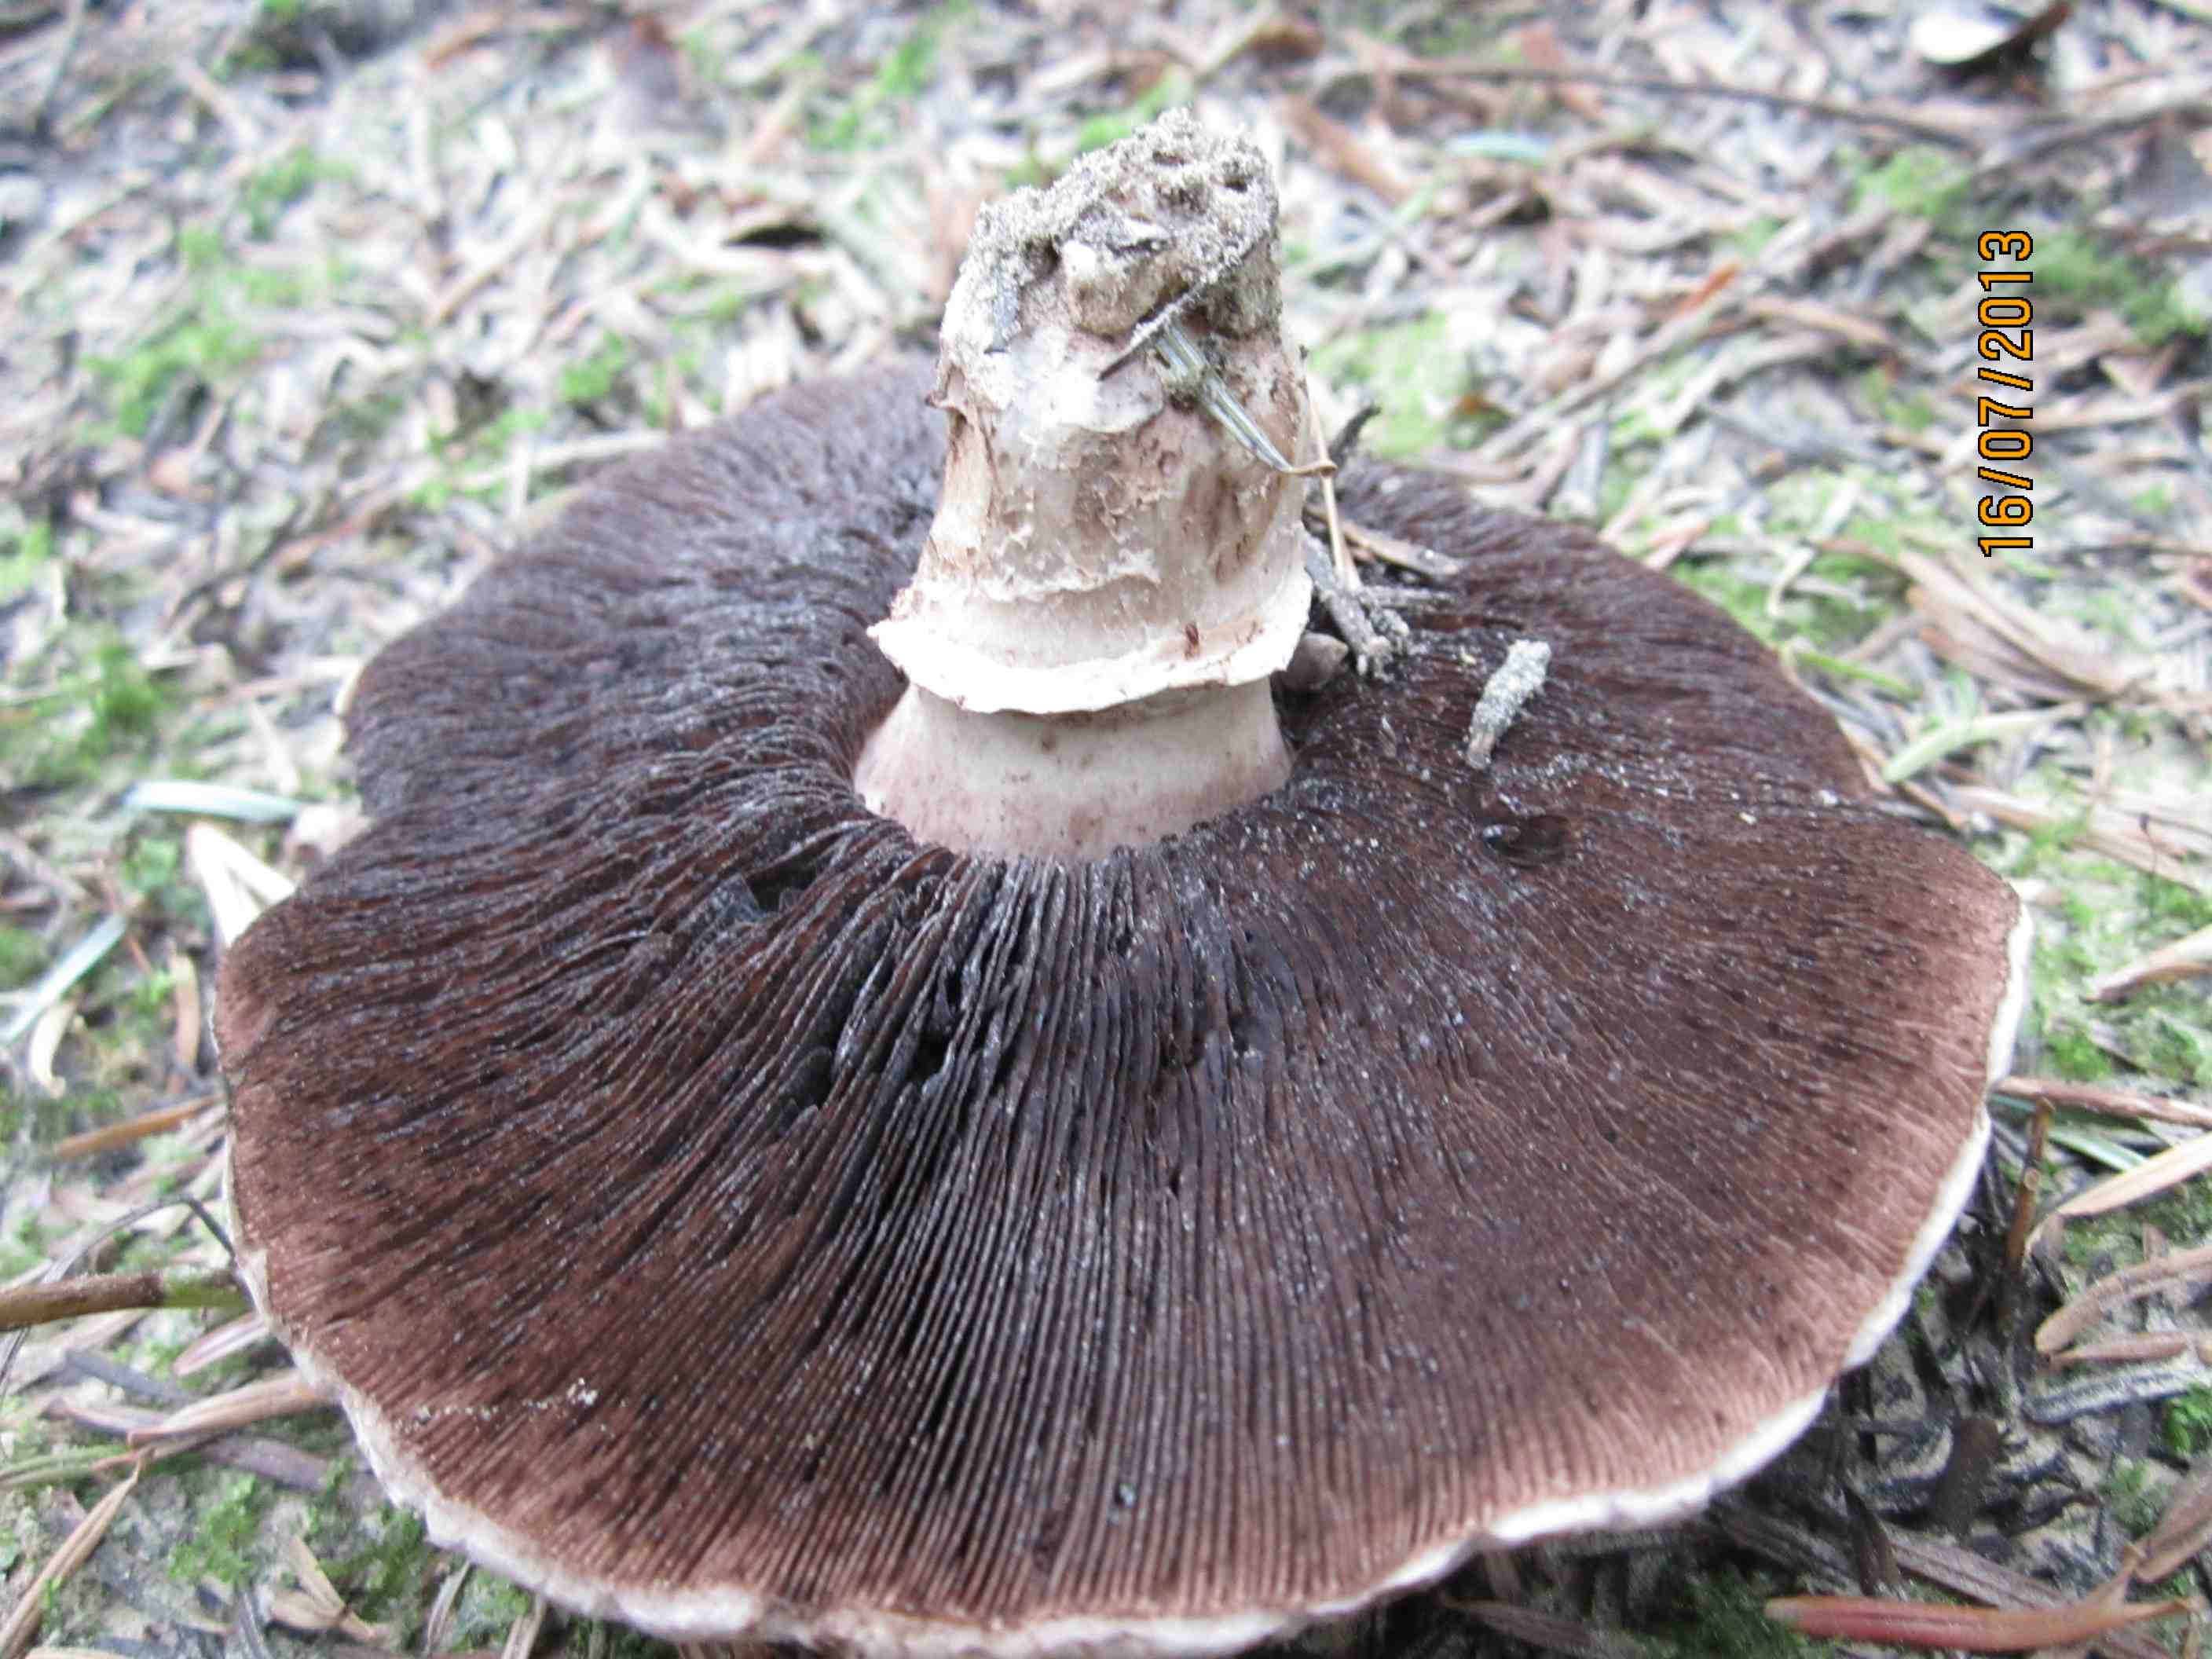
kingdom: Fungi
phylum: Basidiomycota
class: Agaricomycetes
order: Agaricales
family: Agaricaceae
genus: Agaricus
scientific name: Agaricus subfloccosus
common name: randskællet champignon
